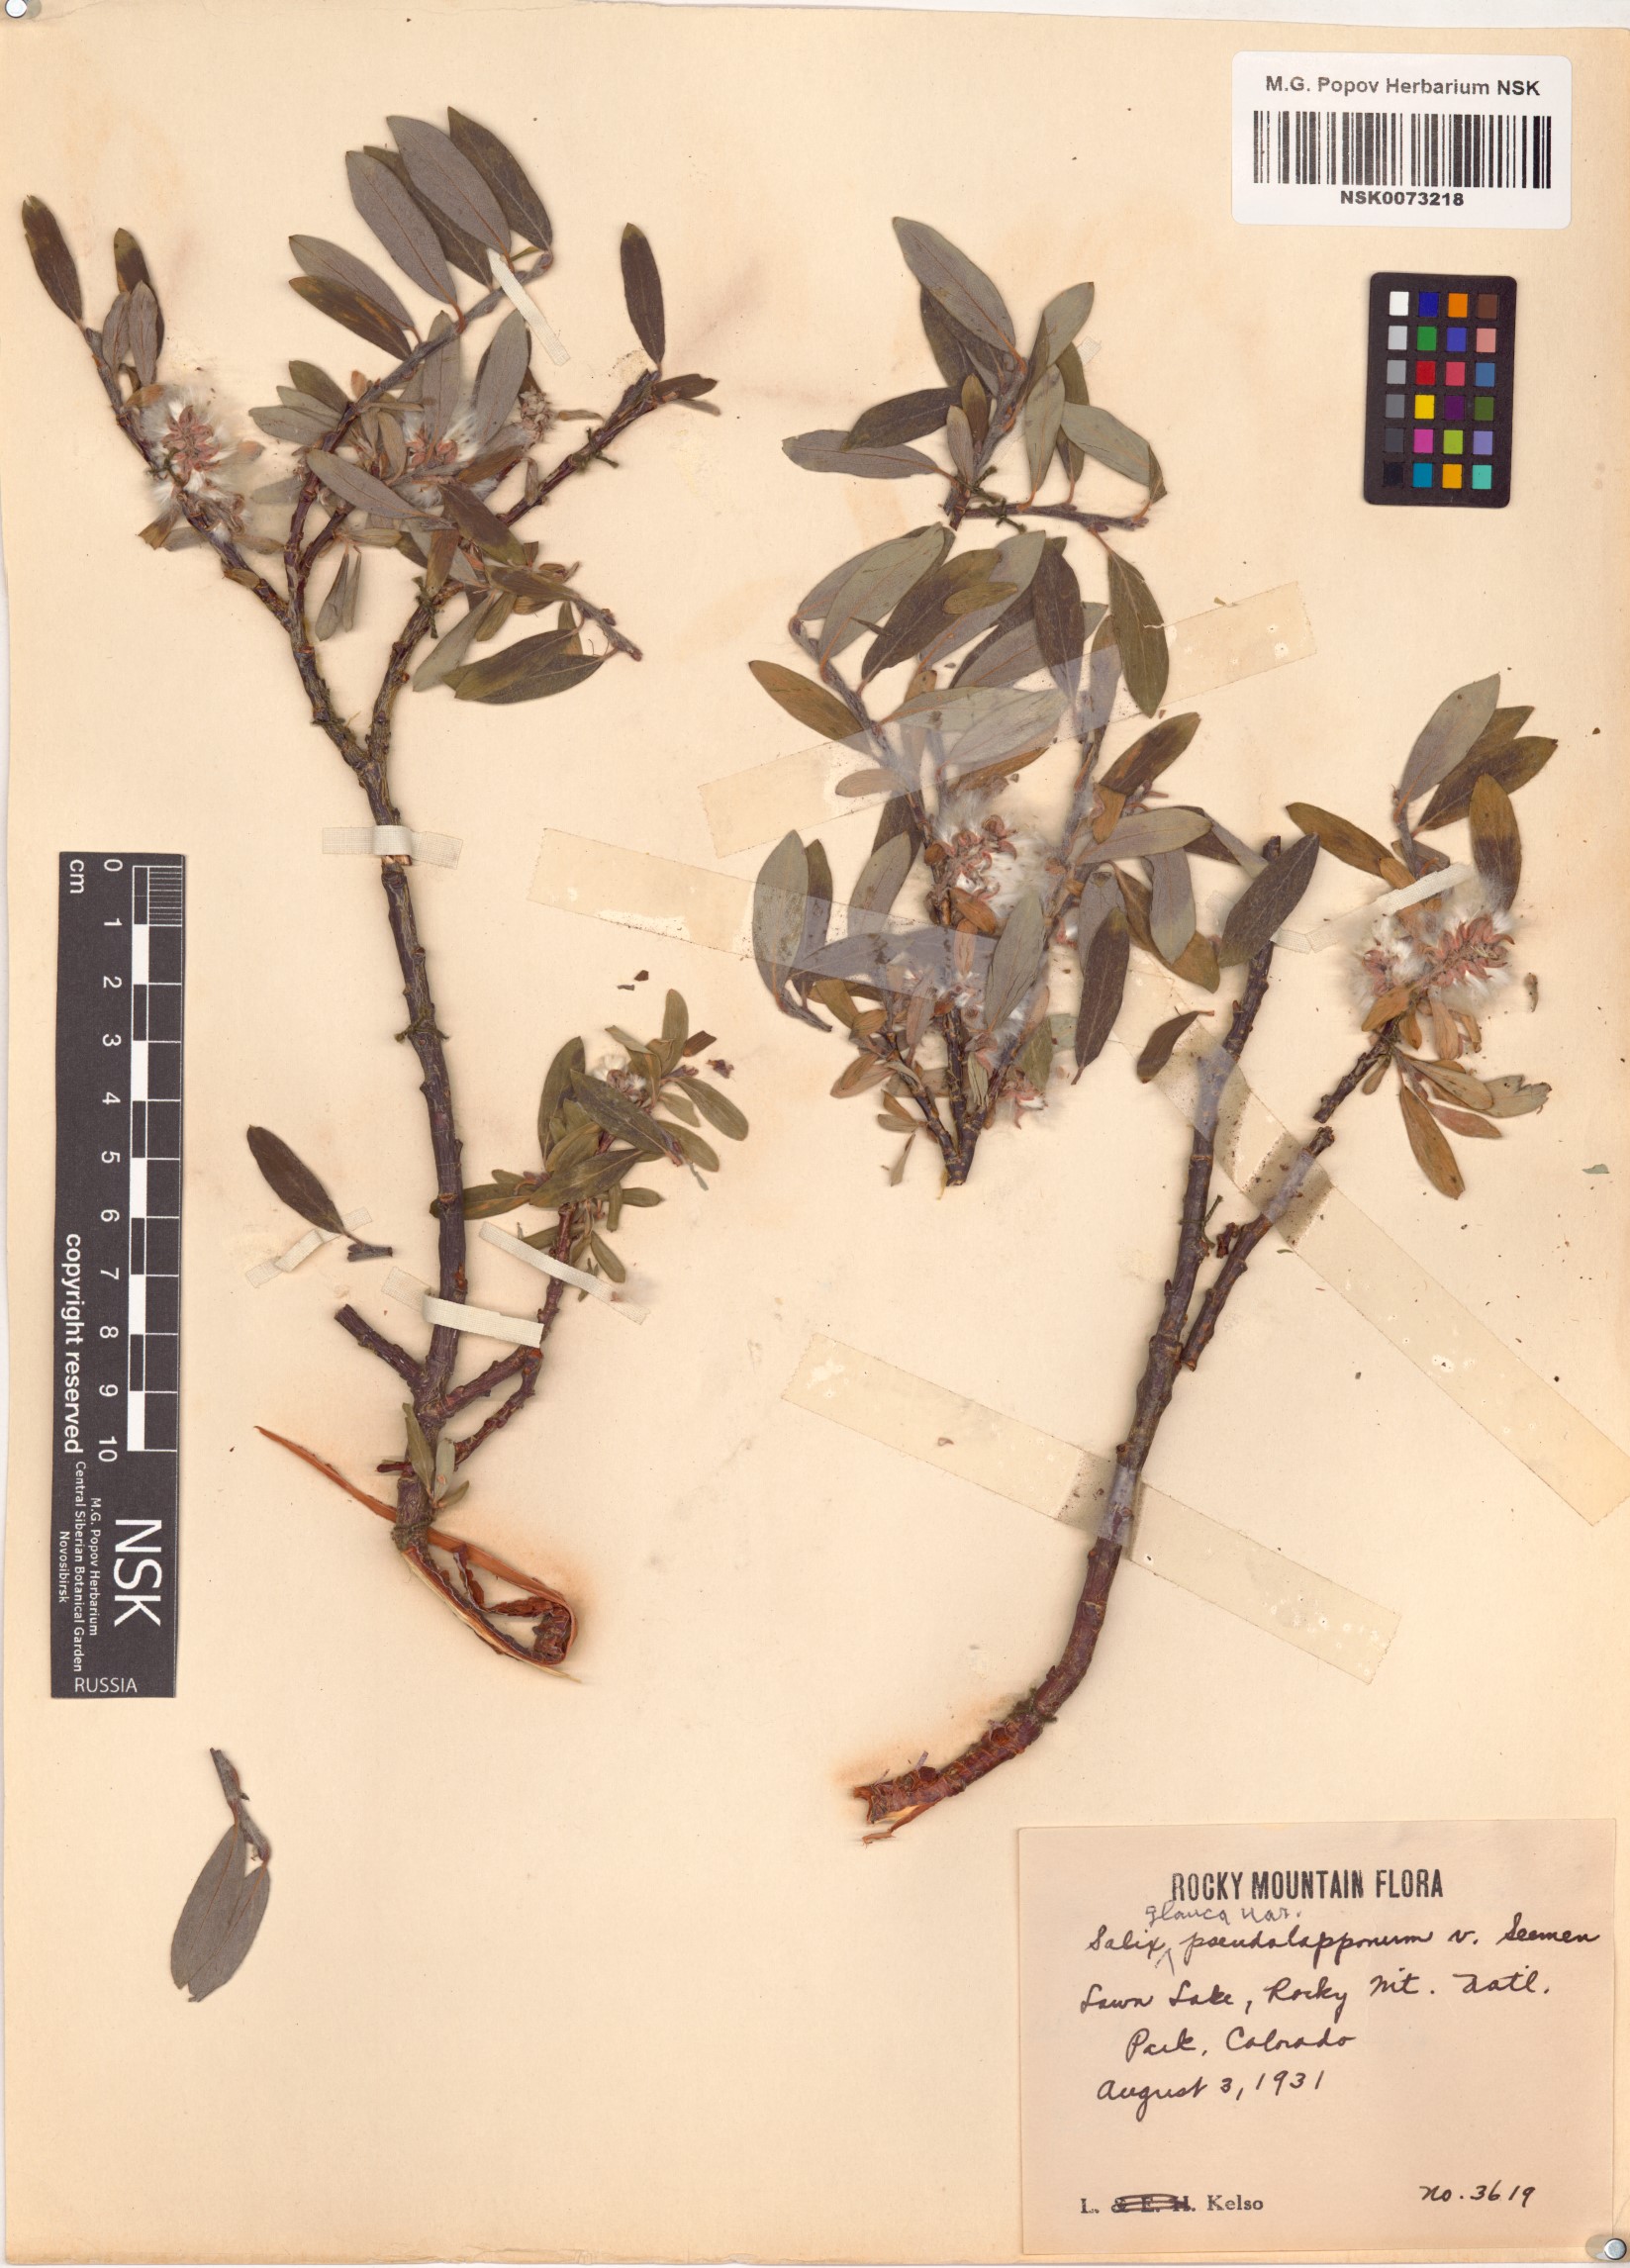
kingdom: Plantae
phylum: Tracheophyta
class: Magnoliopsida
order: Malpighiales
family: Salicaceae
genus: Salix
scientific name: Salix glauca
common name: Glaucous willow
